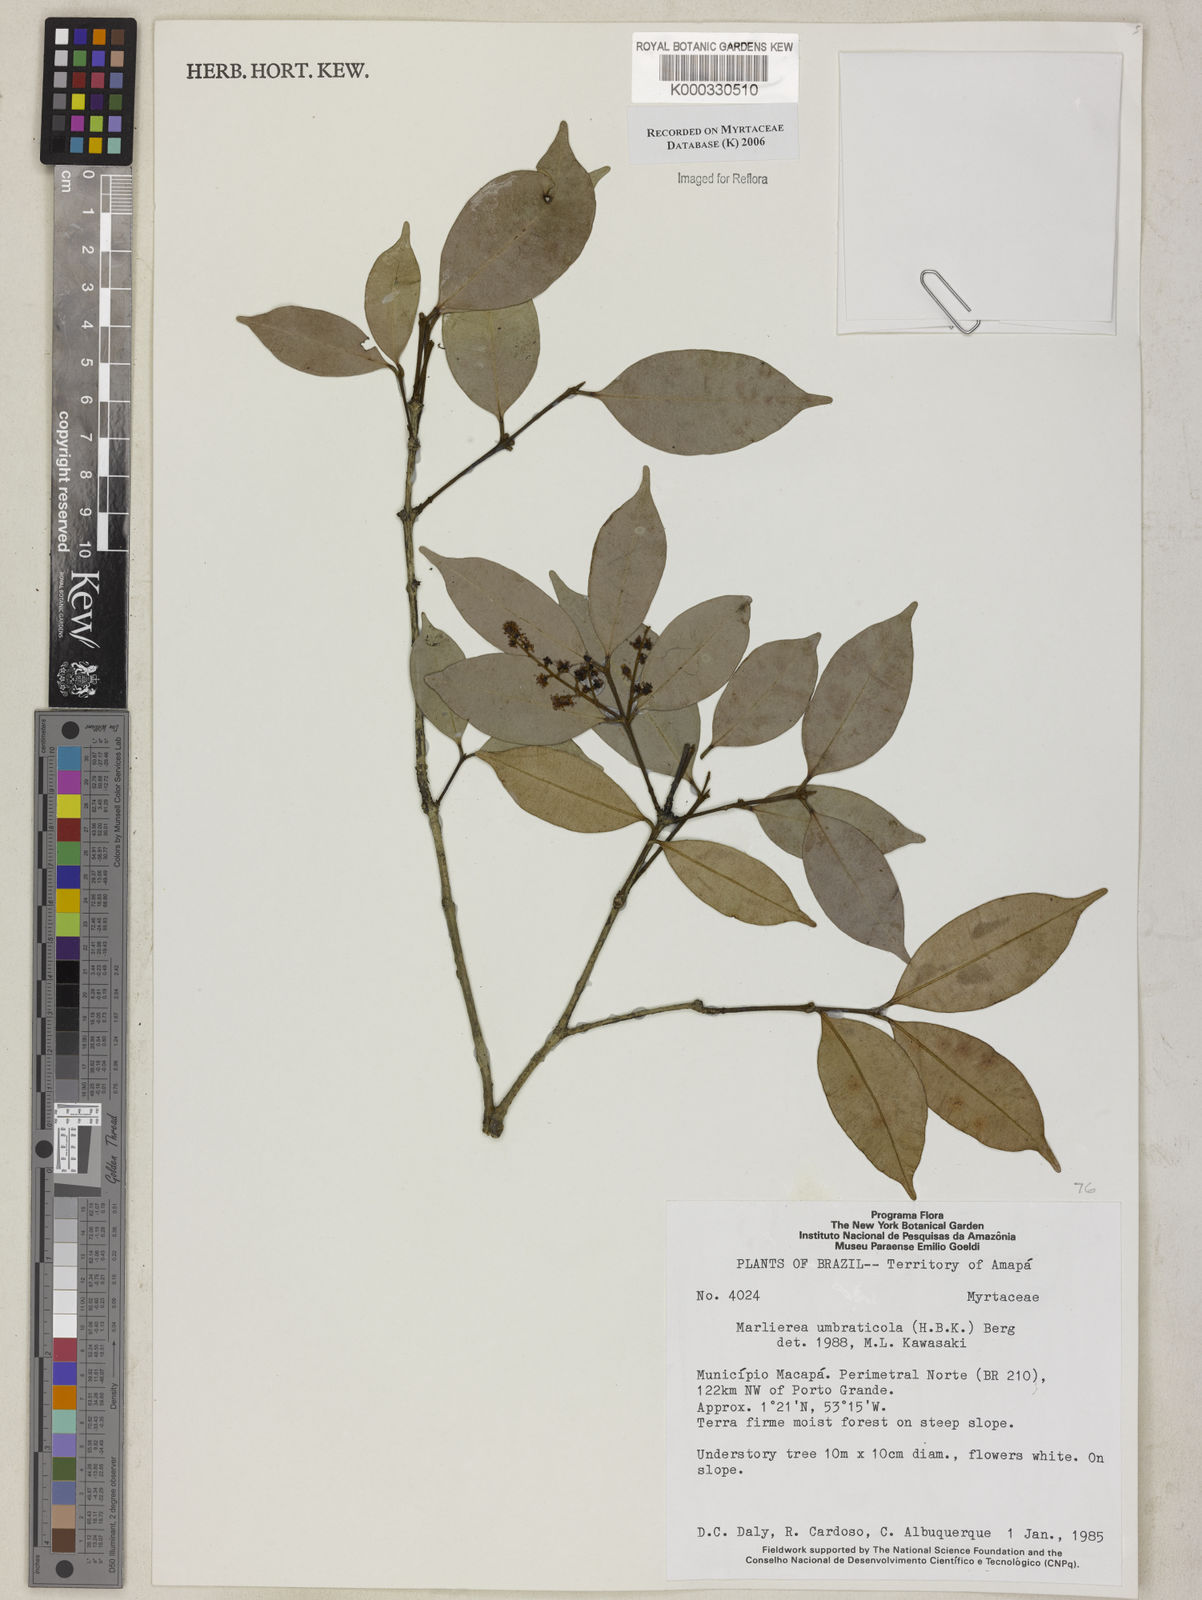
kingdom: Plantae
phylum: Tracheophyta
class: Magnoliopsida
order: Myrtales
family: Myrtaceae
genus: Myrcia
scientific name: Myrcia umbraticola
